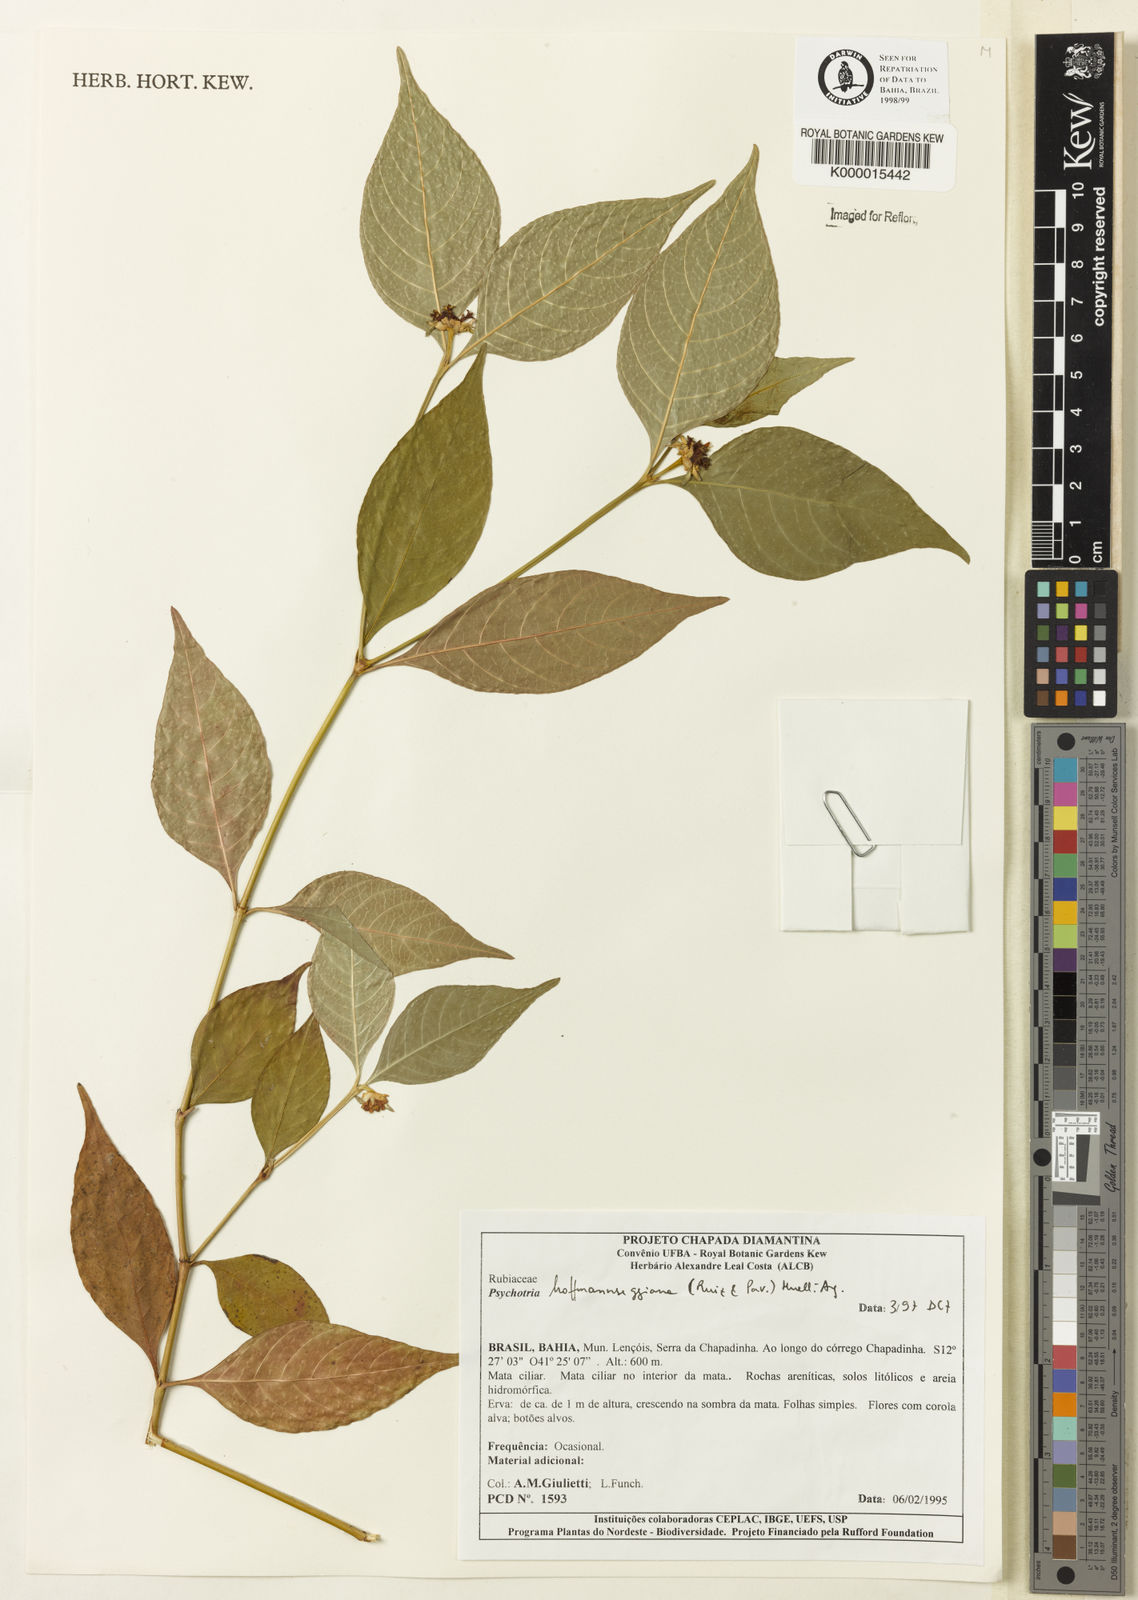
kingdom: Plantae
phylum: Tracheophyta
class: Magnoliopsida
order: Gentianales
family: Rubiaceae
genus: Psychotria
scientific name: Psychotria
